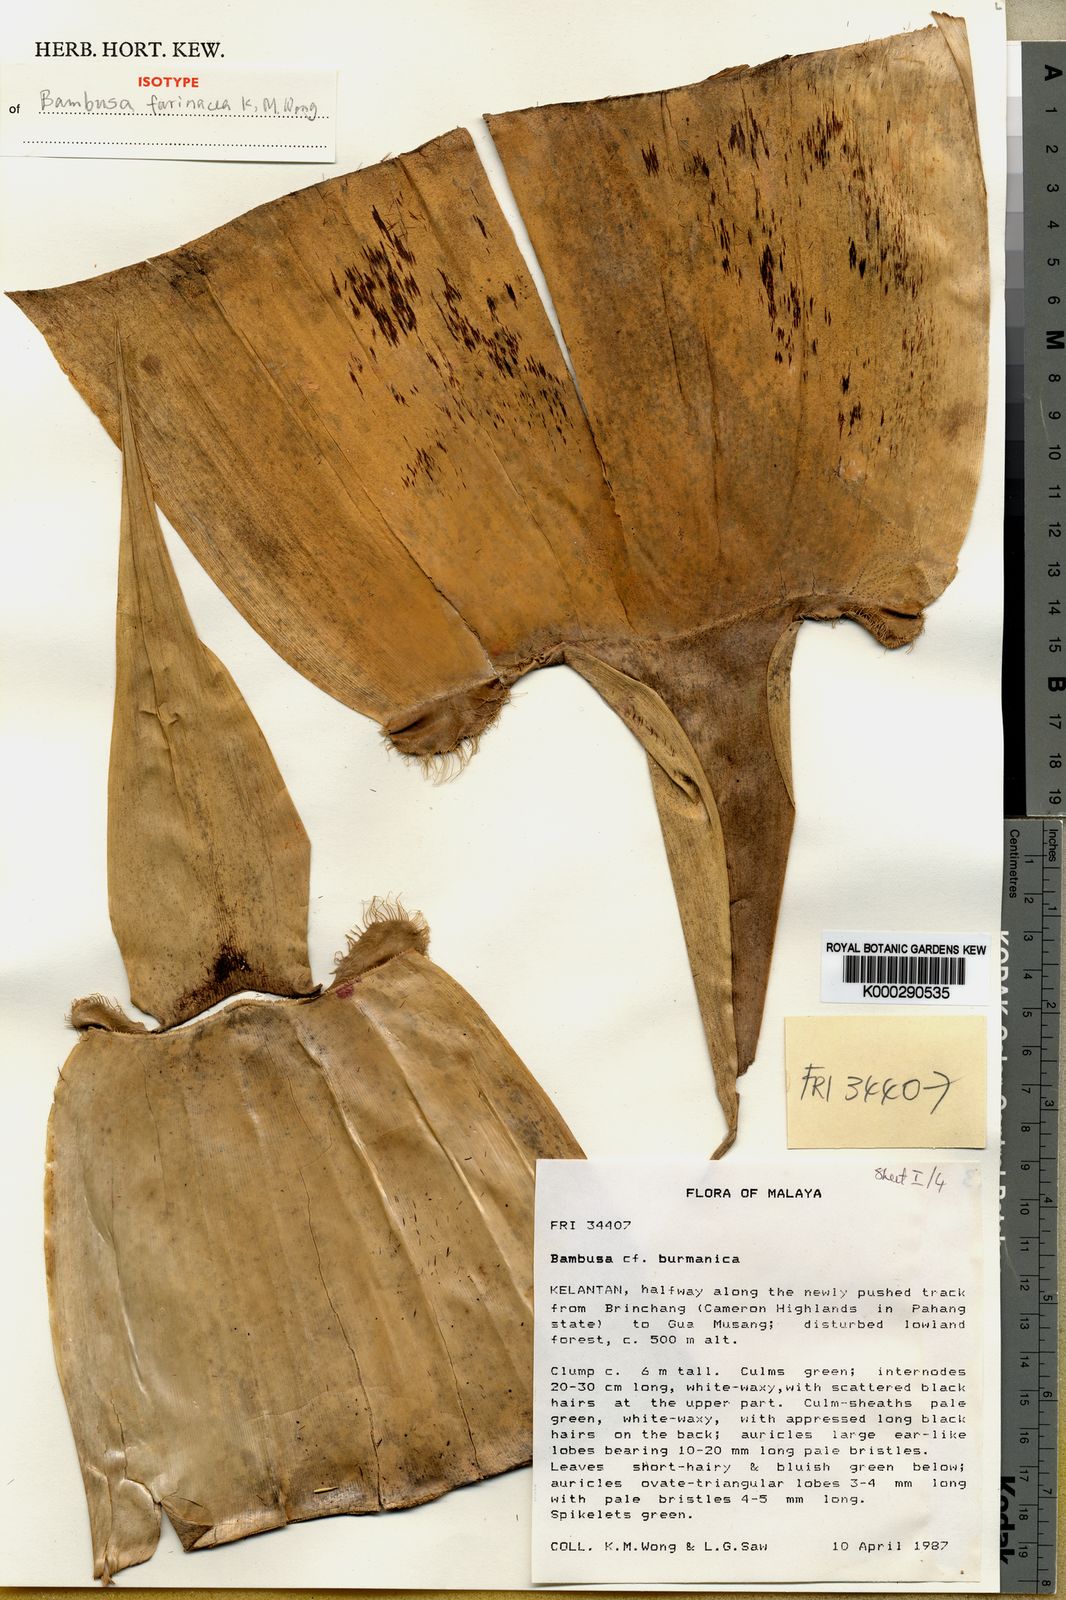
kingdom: Plantae
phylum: Tracheophyta
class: Liliopsida
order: Poales
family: Poaceae
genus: Bambusa
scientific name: Bambusa farinacea
